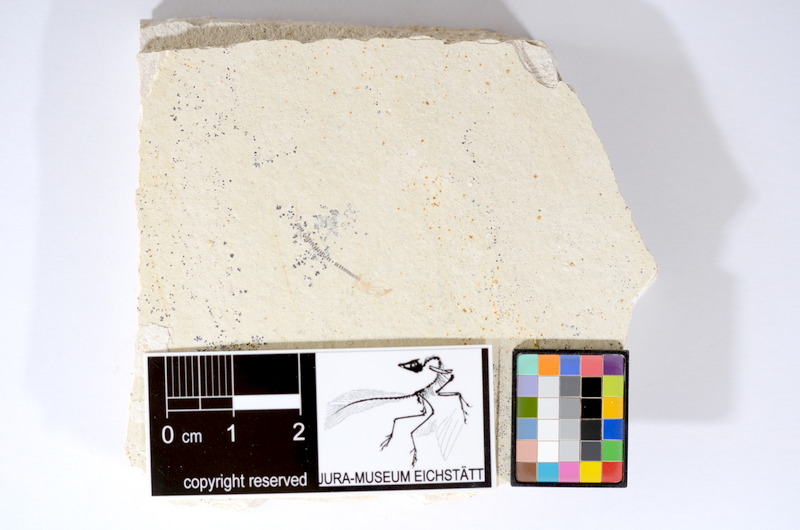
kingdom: Animalia
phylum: Chordata
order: Salmoniformes
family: Orthogonikleithridae
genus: Orthogonikleithrus
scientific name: Orthogonikleithrus hoelli
